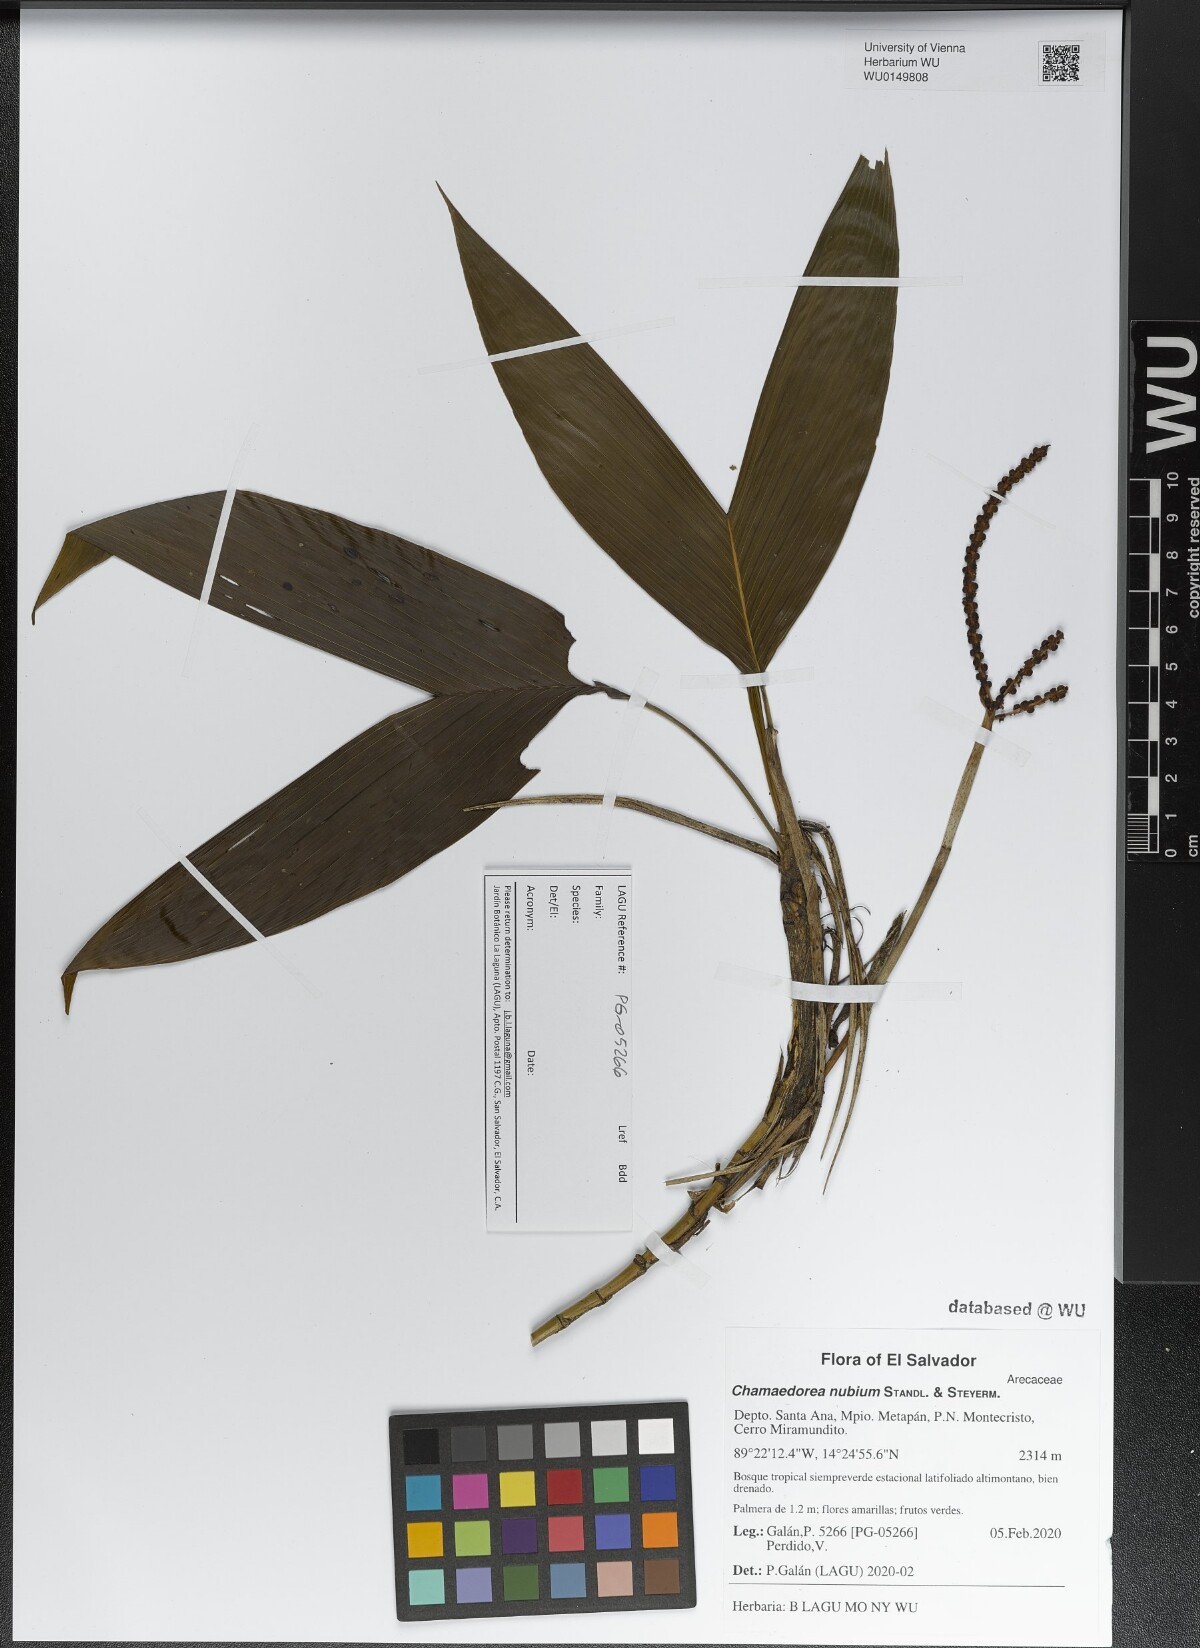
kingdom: Plantae
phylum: Tracheophyta
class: Liliopsida
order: Arecales
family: Arecaceae
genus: Chamaedorea
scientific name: Chamaedorea nubium
